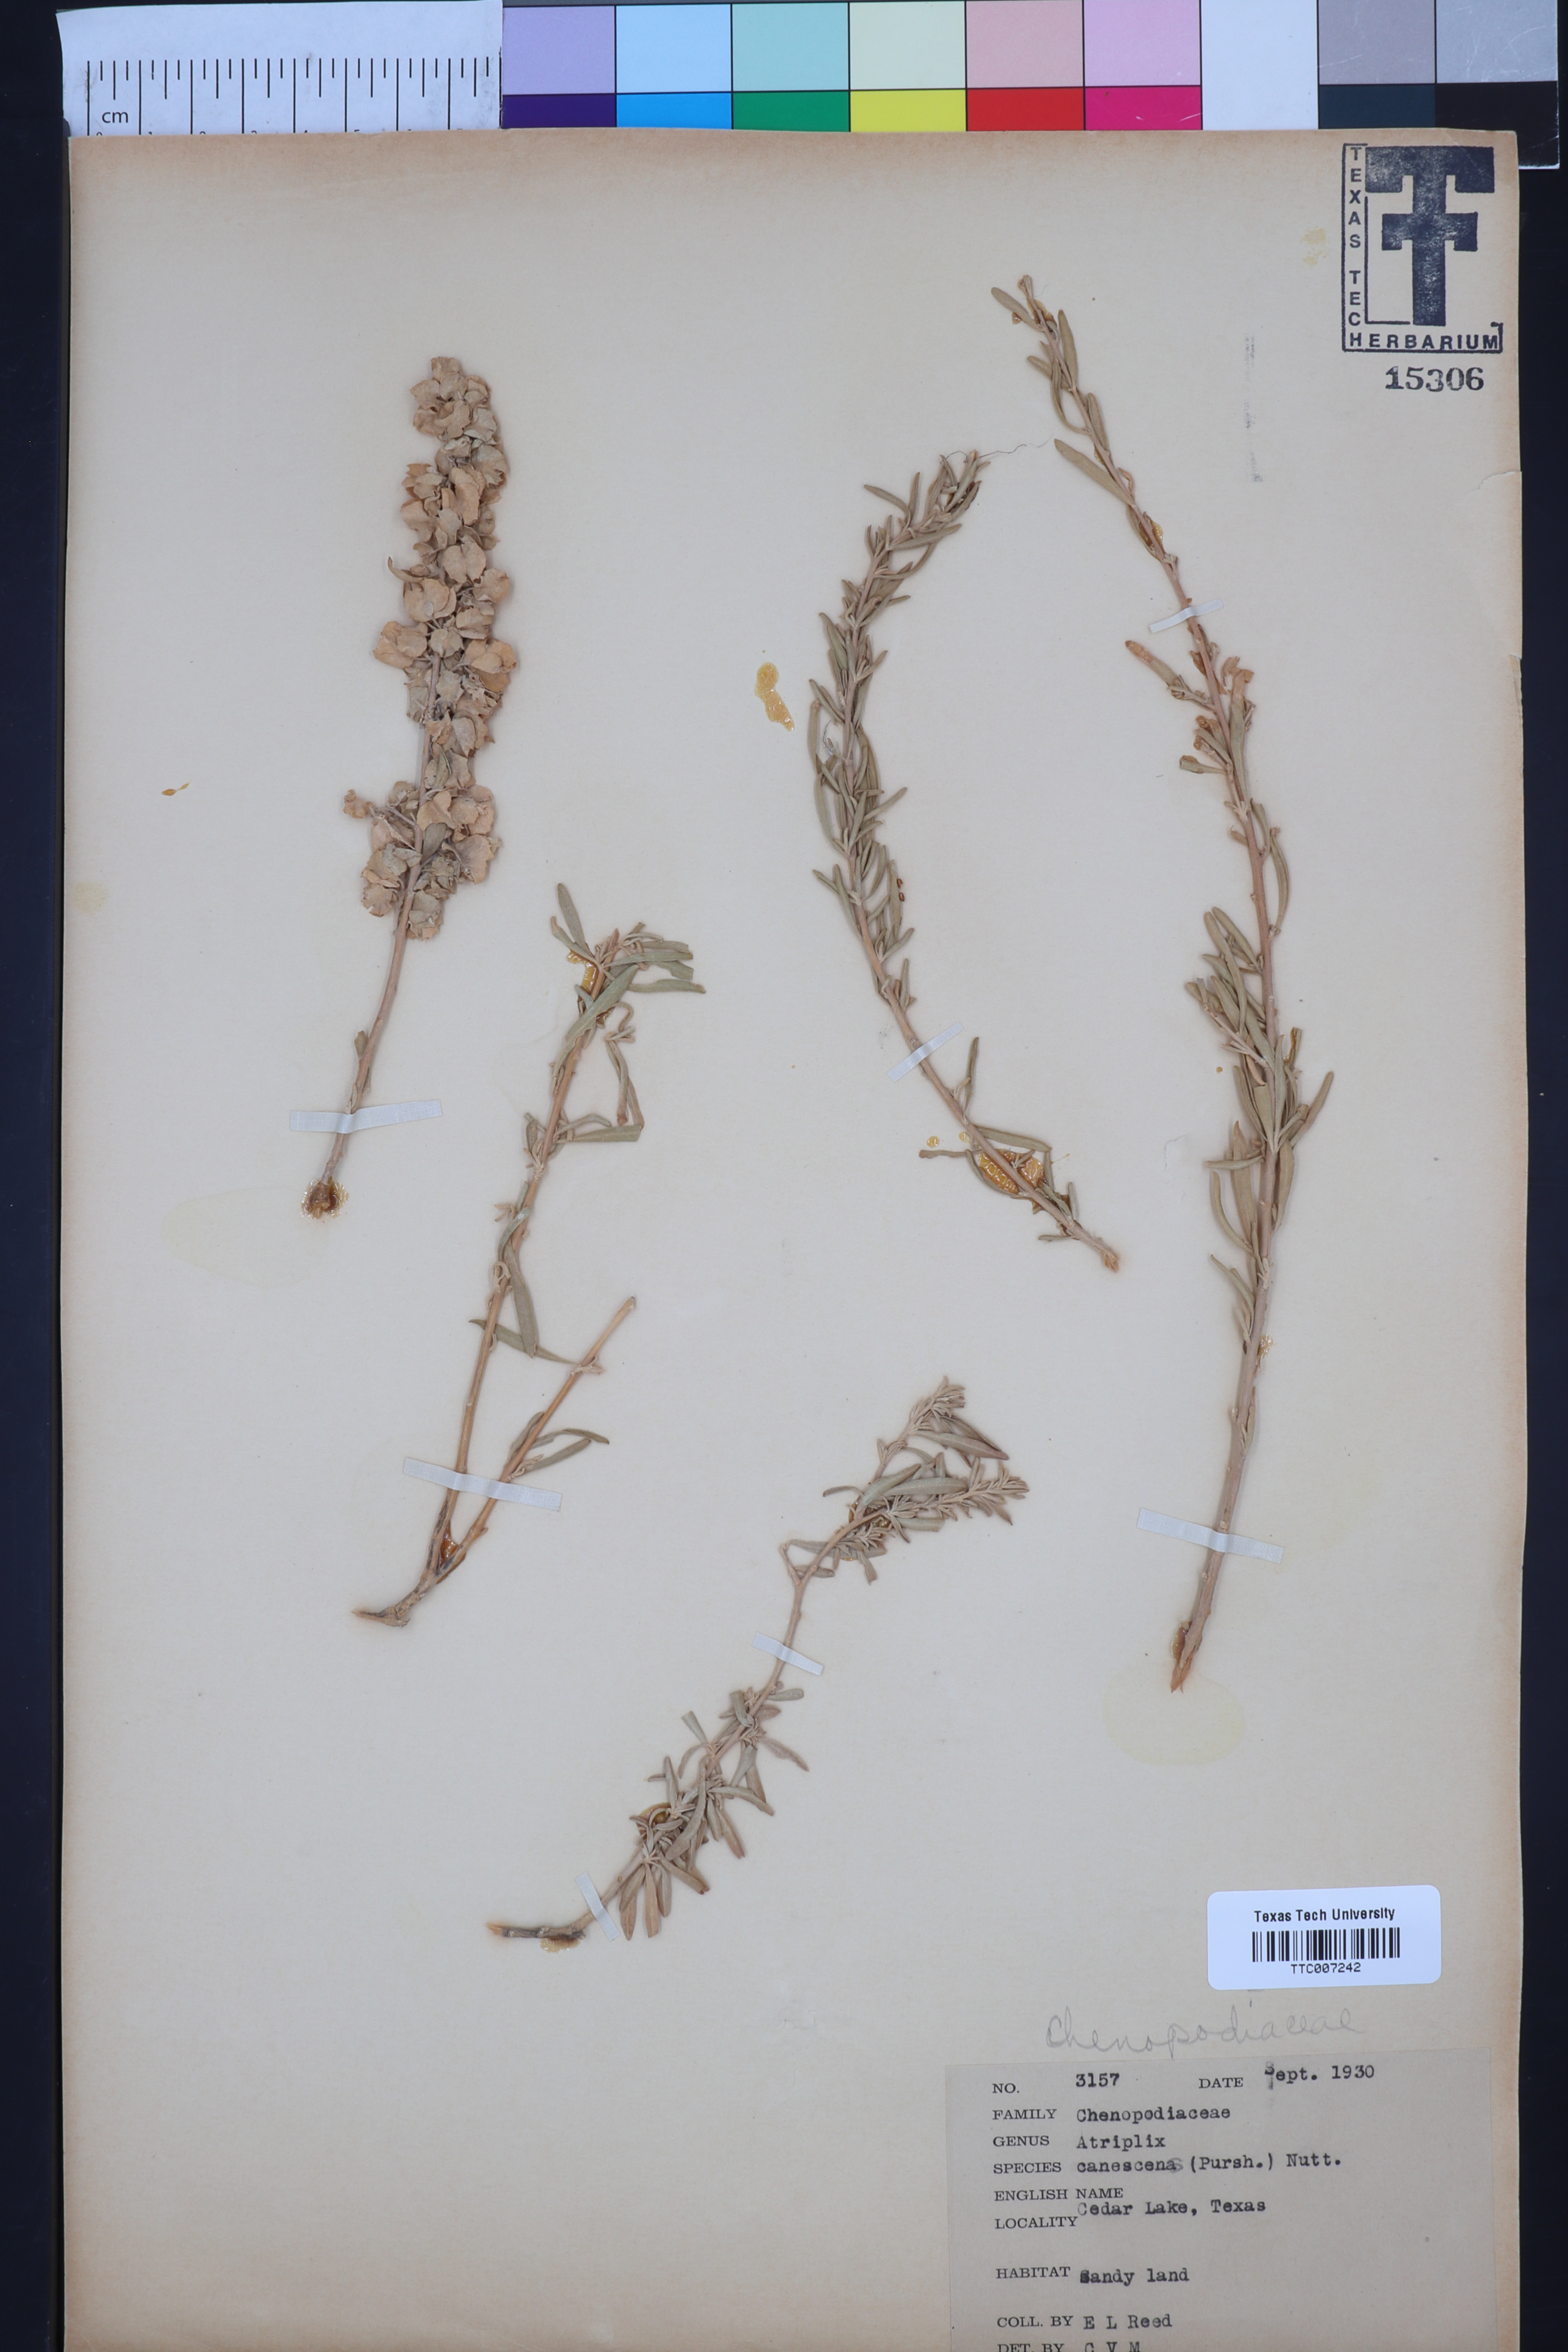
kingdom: Plantae
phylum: Tracheophyta
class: Magnoliopsida
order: Caryophyllales
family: Amaranthaceae
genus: Atriplex
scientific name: Atriplex canescens
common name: Four-wing saltbush
